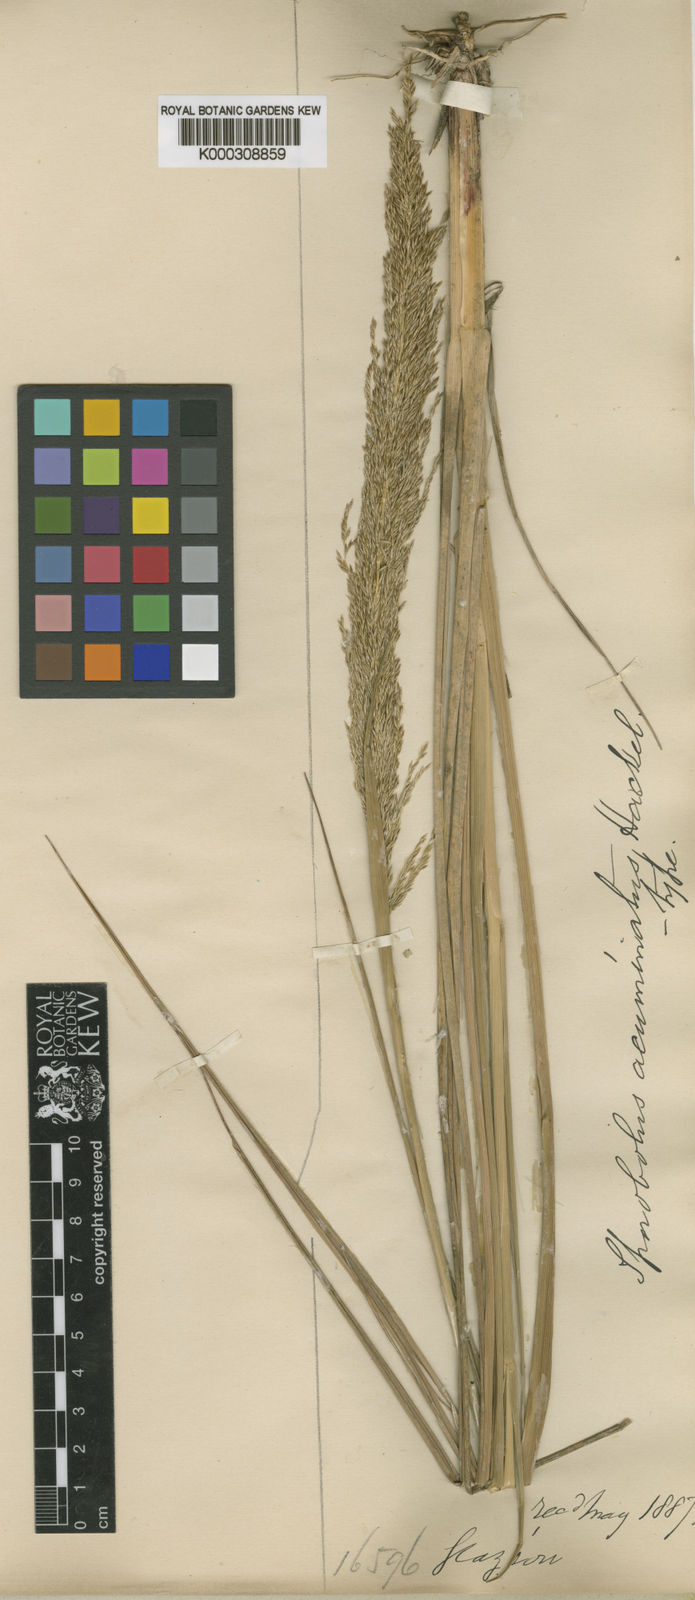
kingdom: Plantae
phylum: Tracheophyta
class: Liliopsida
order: Poales
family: Poaceae
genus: Sporobolus
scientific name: Sporobolus acuminatus
